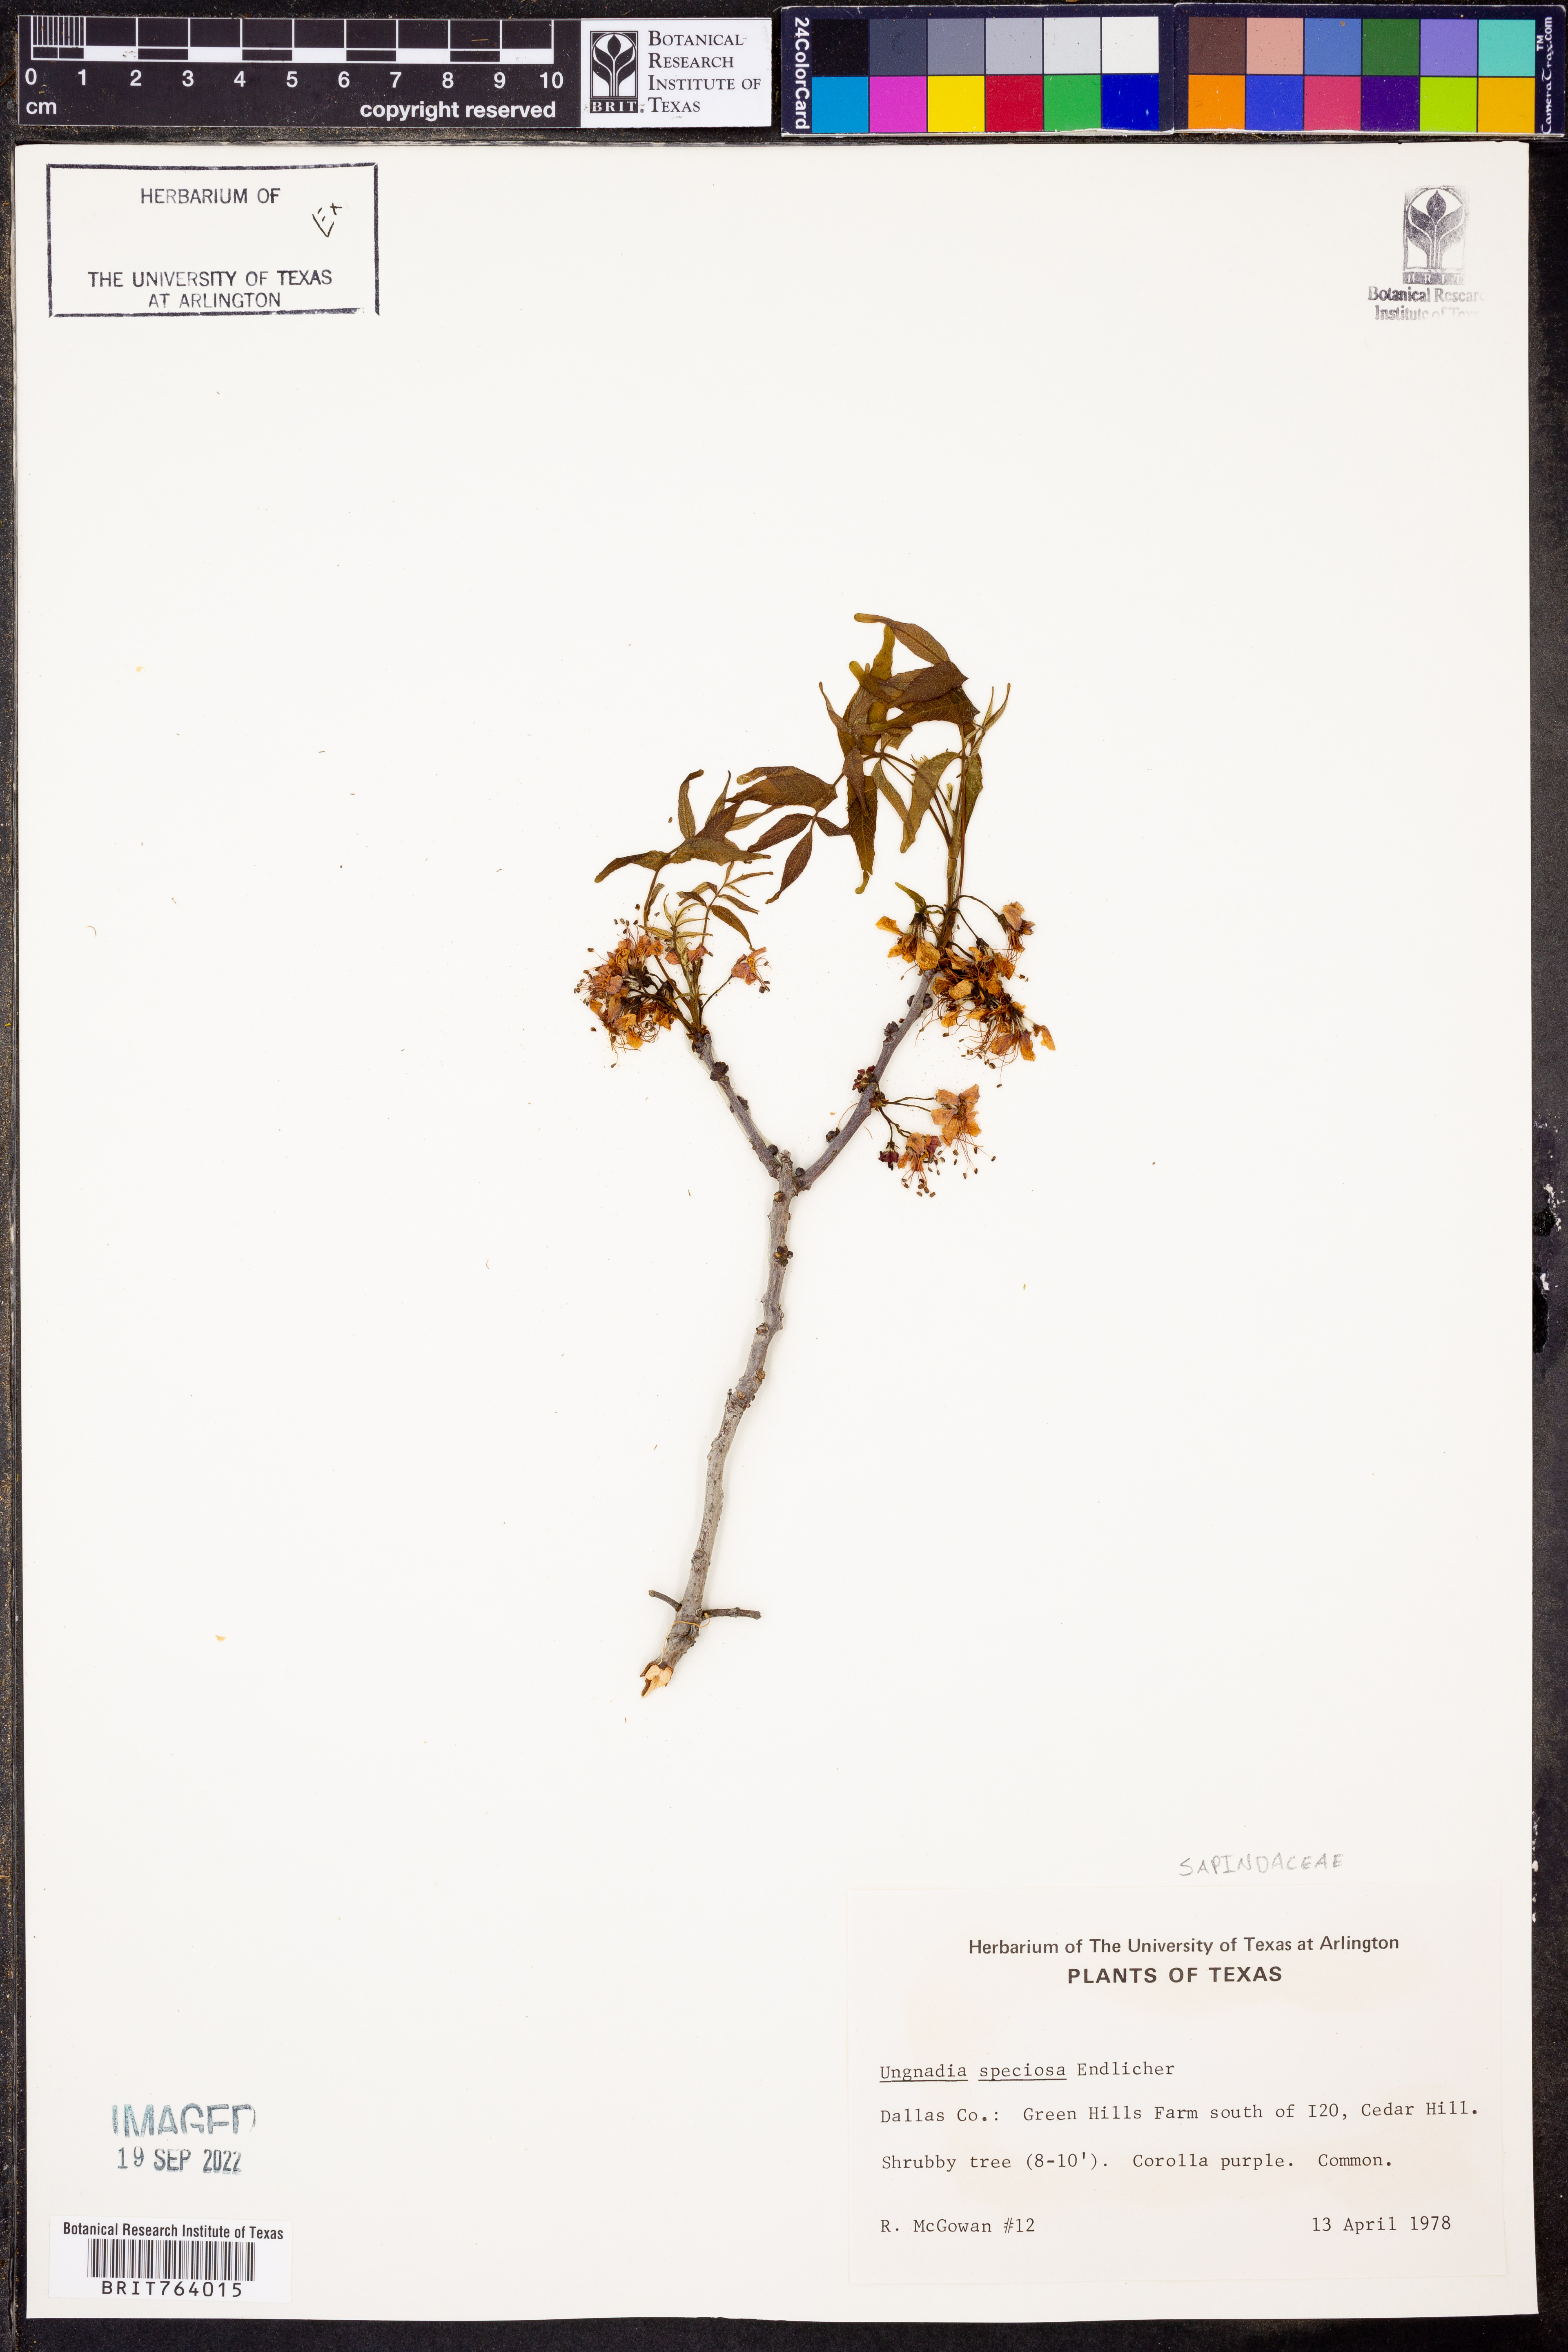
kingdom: Plantae
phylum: Tracheophyta
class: Magnoliopsida
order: Sapindales
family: Sapindaceae
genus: Ungnadia
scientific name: Ungnadia speciosa
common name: Texas-buckeye
